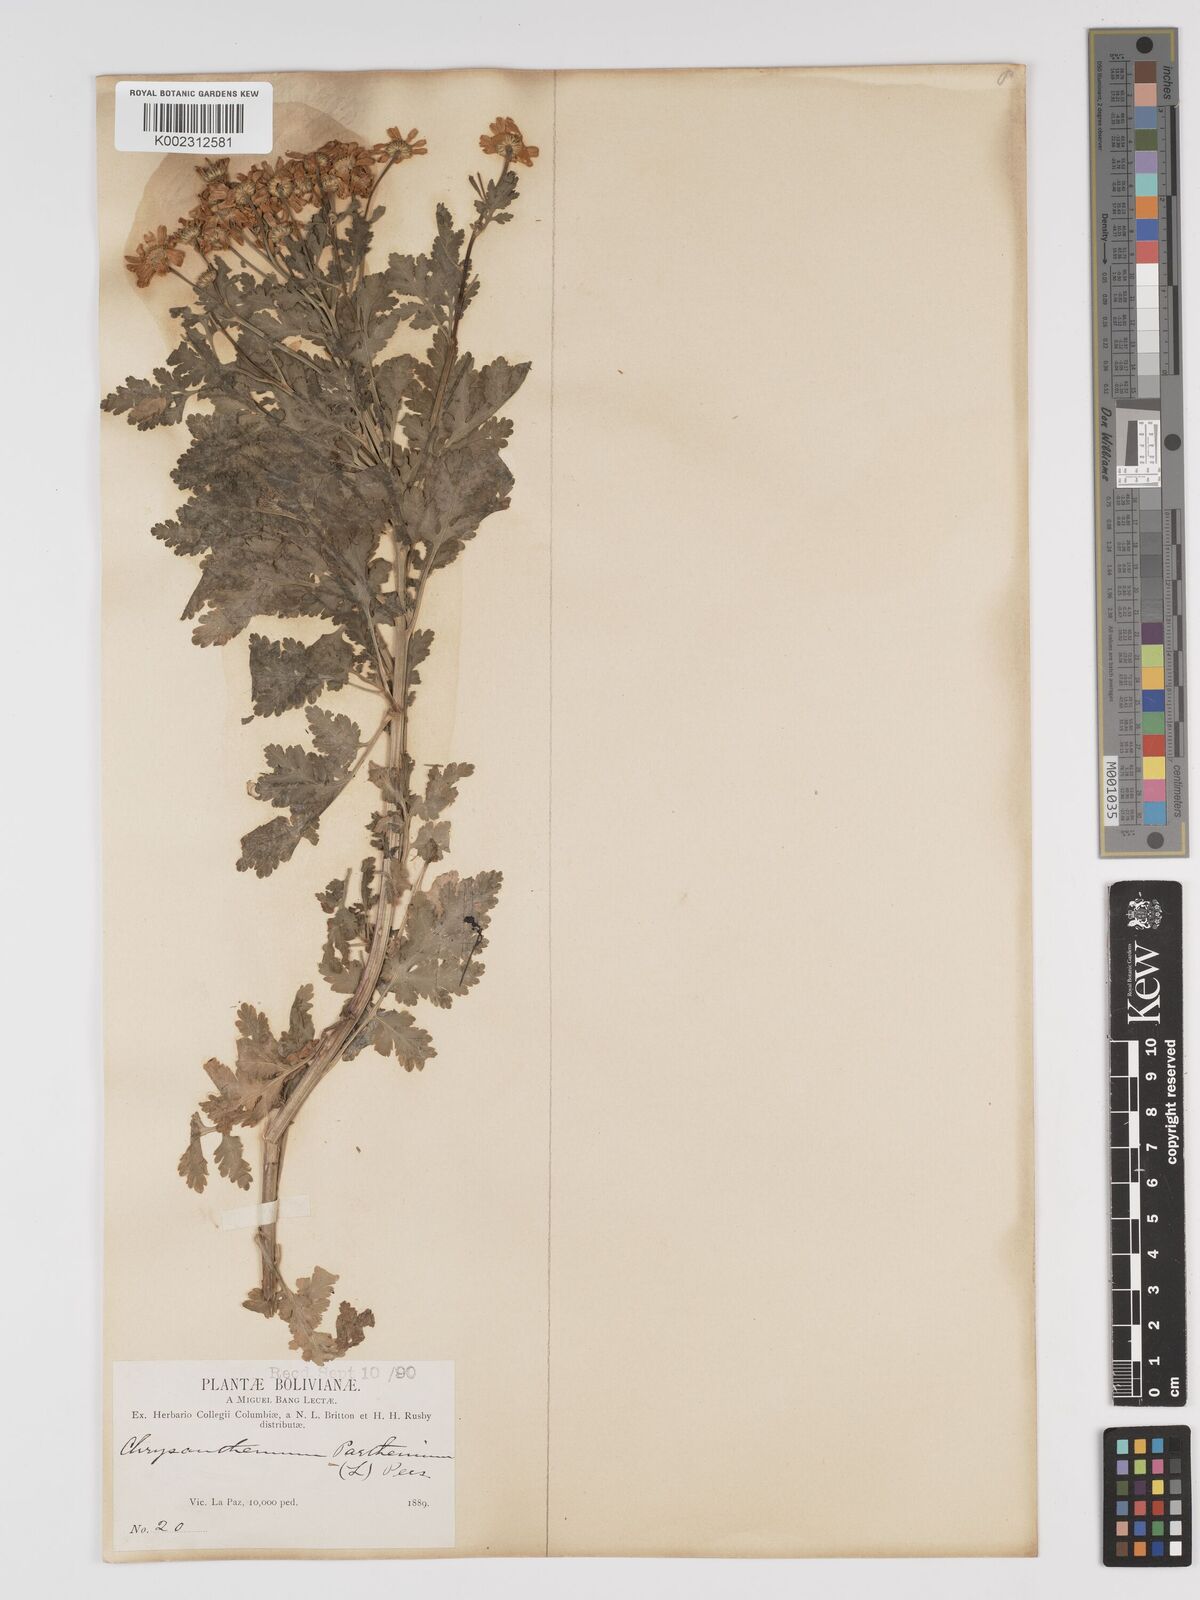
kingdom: Plantae
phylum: Tracheophyta
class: Magnoliopsida
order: Asterales
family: Asteraceae
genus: Tanacetum
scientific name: Tanacetum parthenium
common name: Feverfew
